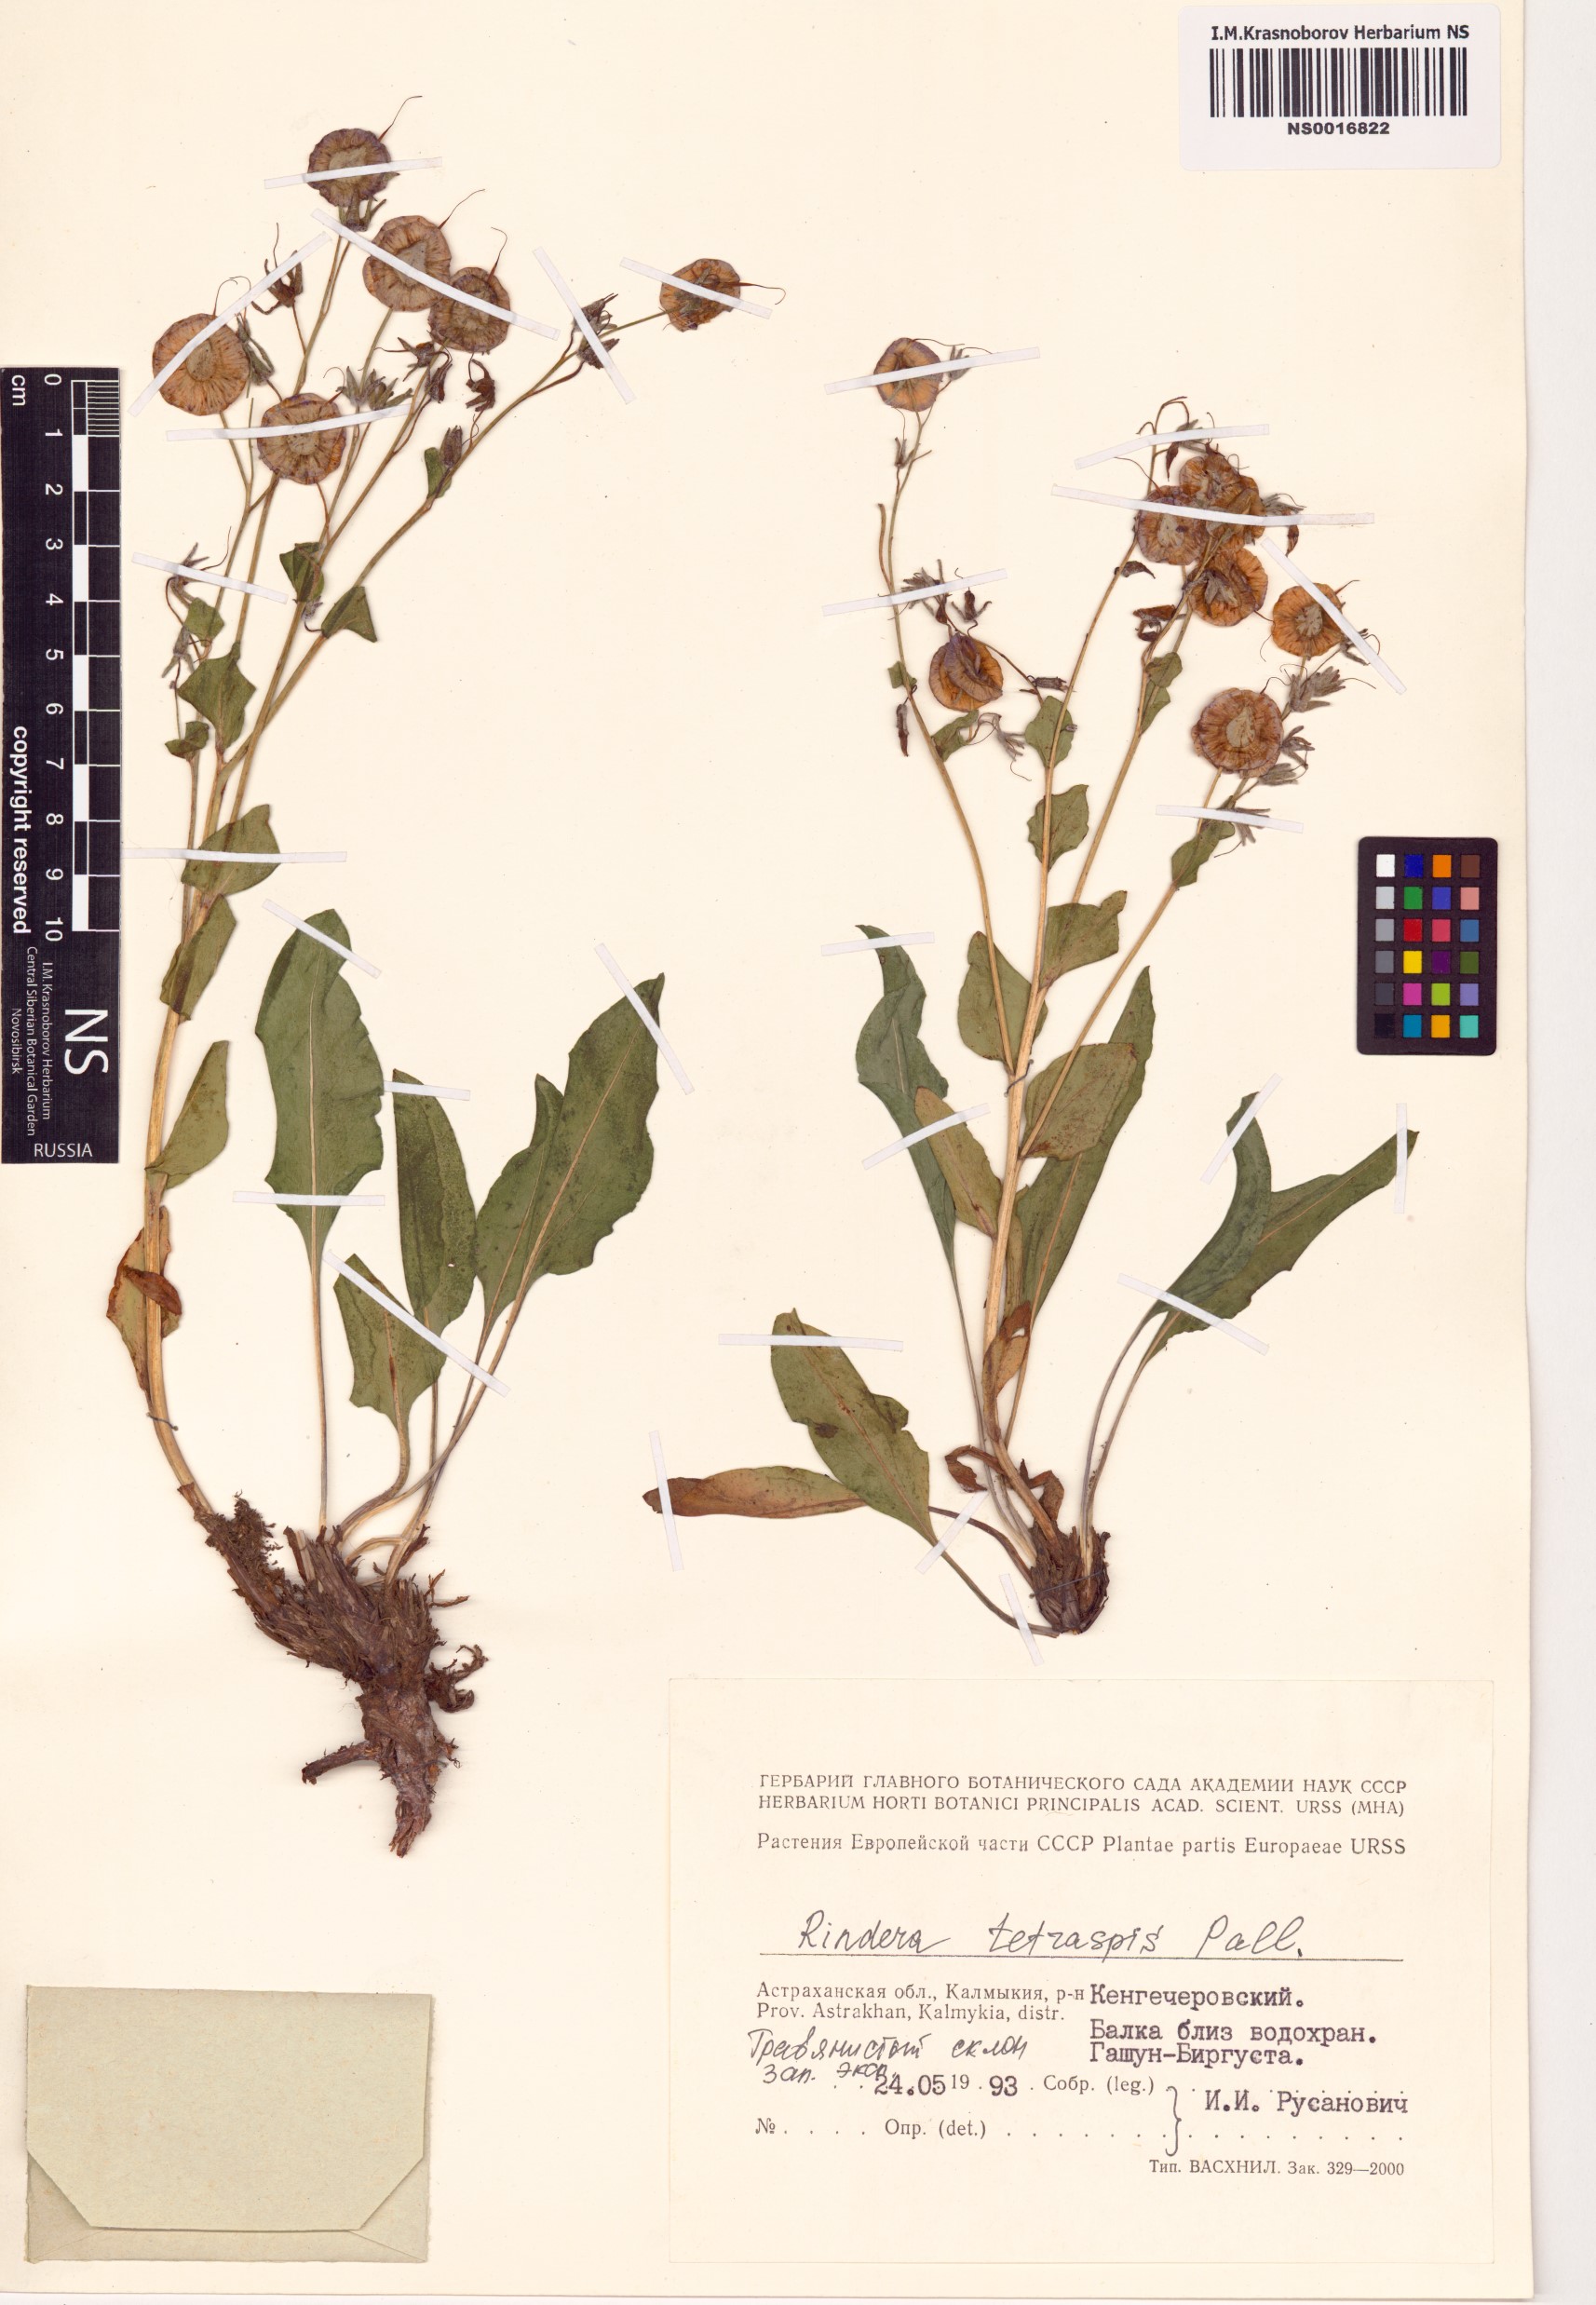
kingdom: Plantae
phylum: Tracheophyta
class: Magnoliopsida
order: Boraginales
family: Boraginaceae
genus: Rindera
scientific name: Rindera tetraspis
